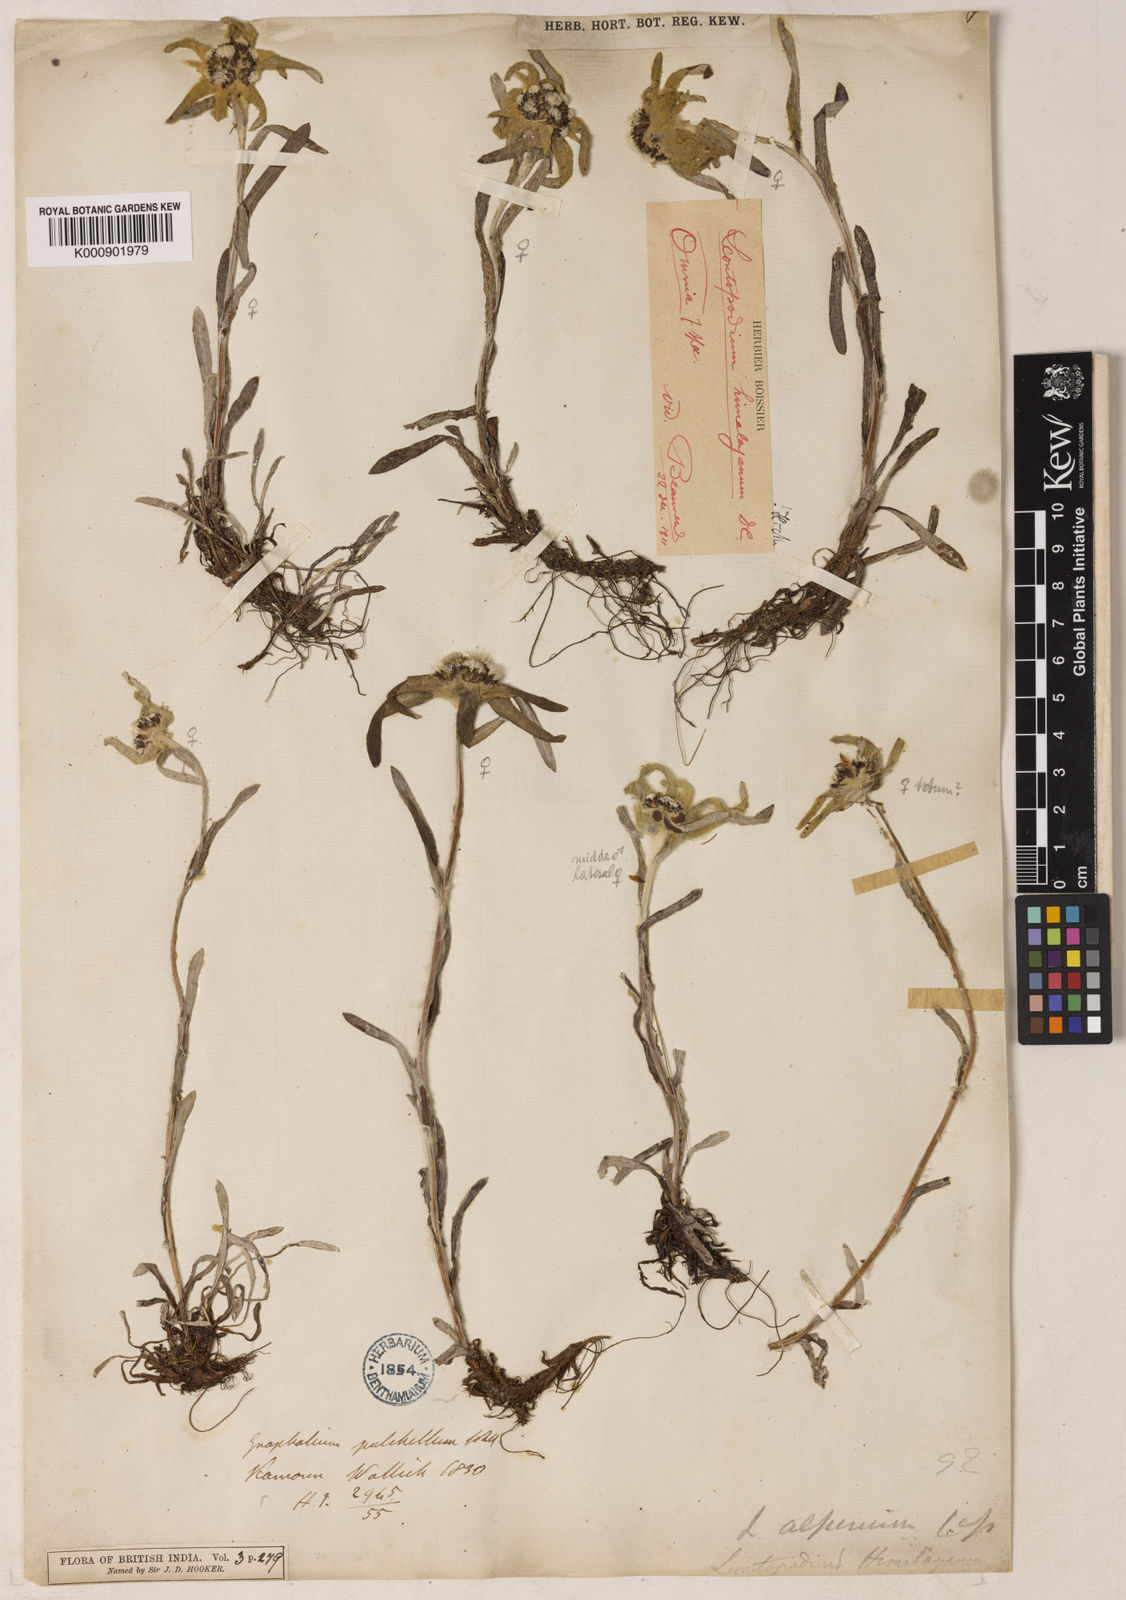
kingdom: Plantae
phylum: Tracheophyta
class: Magnoliopsida
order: Asterales
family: Asteraceae
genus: Leontopodium
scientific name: Leontopodium himalayanum
